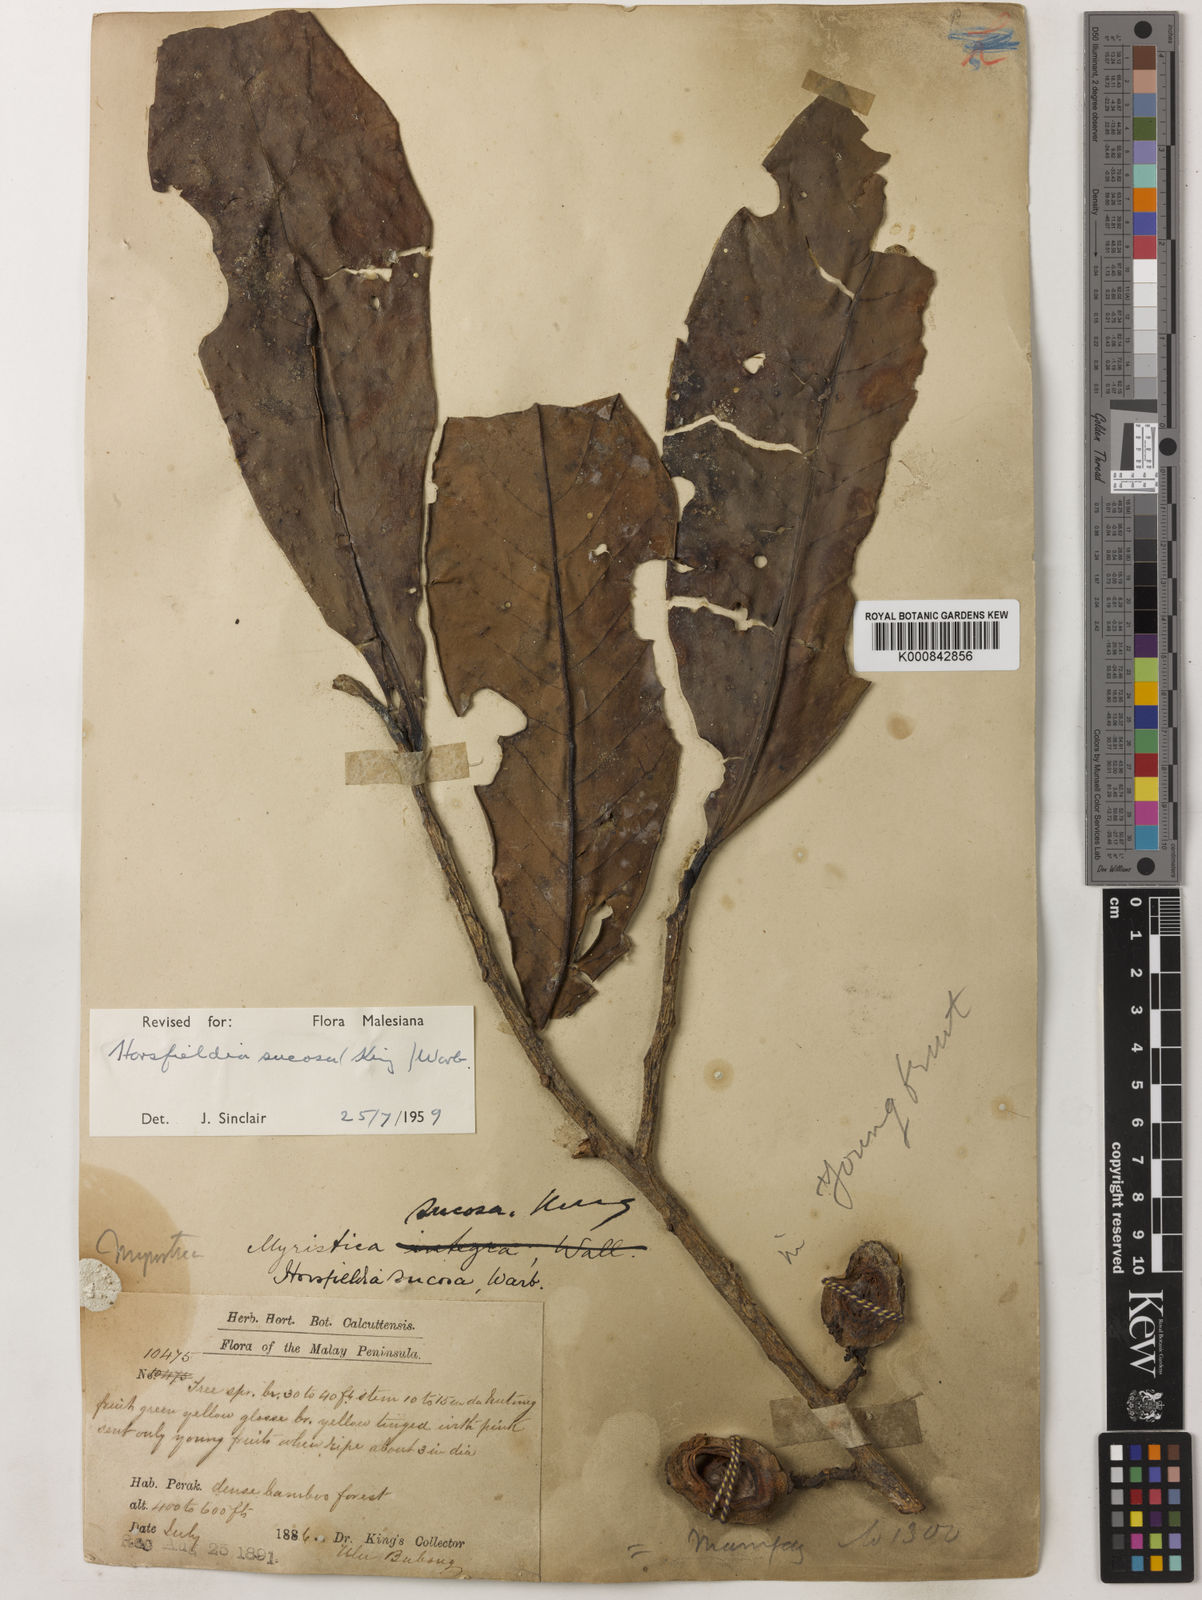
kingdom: Plantae
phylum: Tracheophyta
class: Magnoliopsida
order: Magnoliales
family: Myristicaceae
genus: Horsfieldia
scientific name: Horsfieldia sucosa
